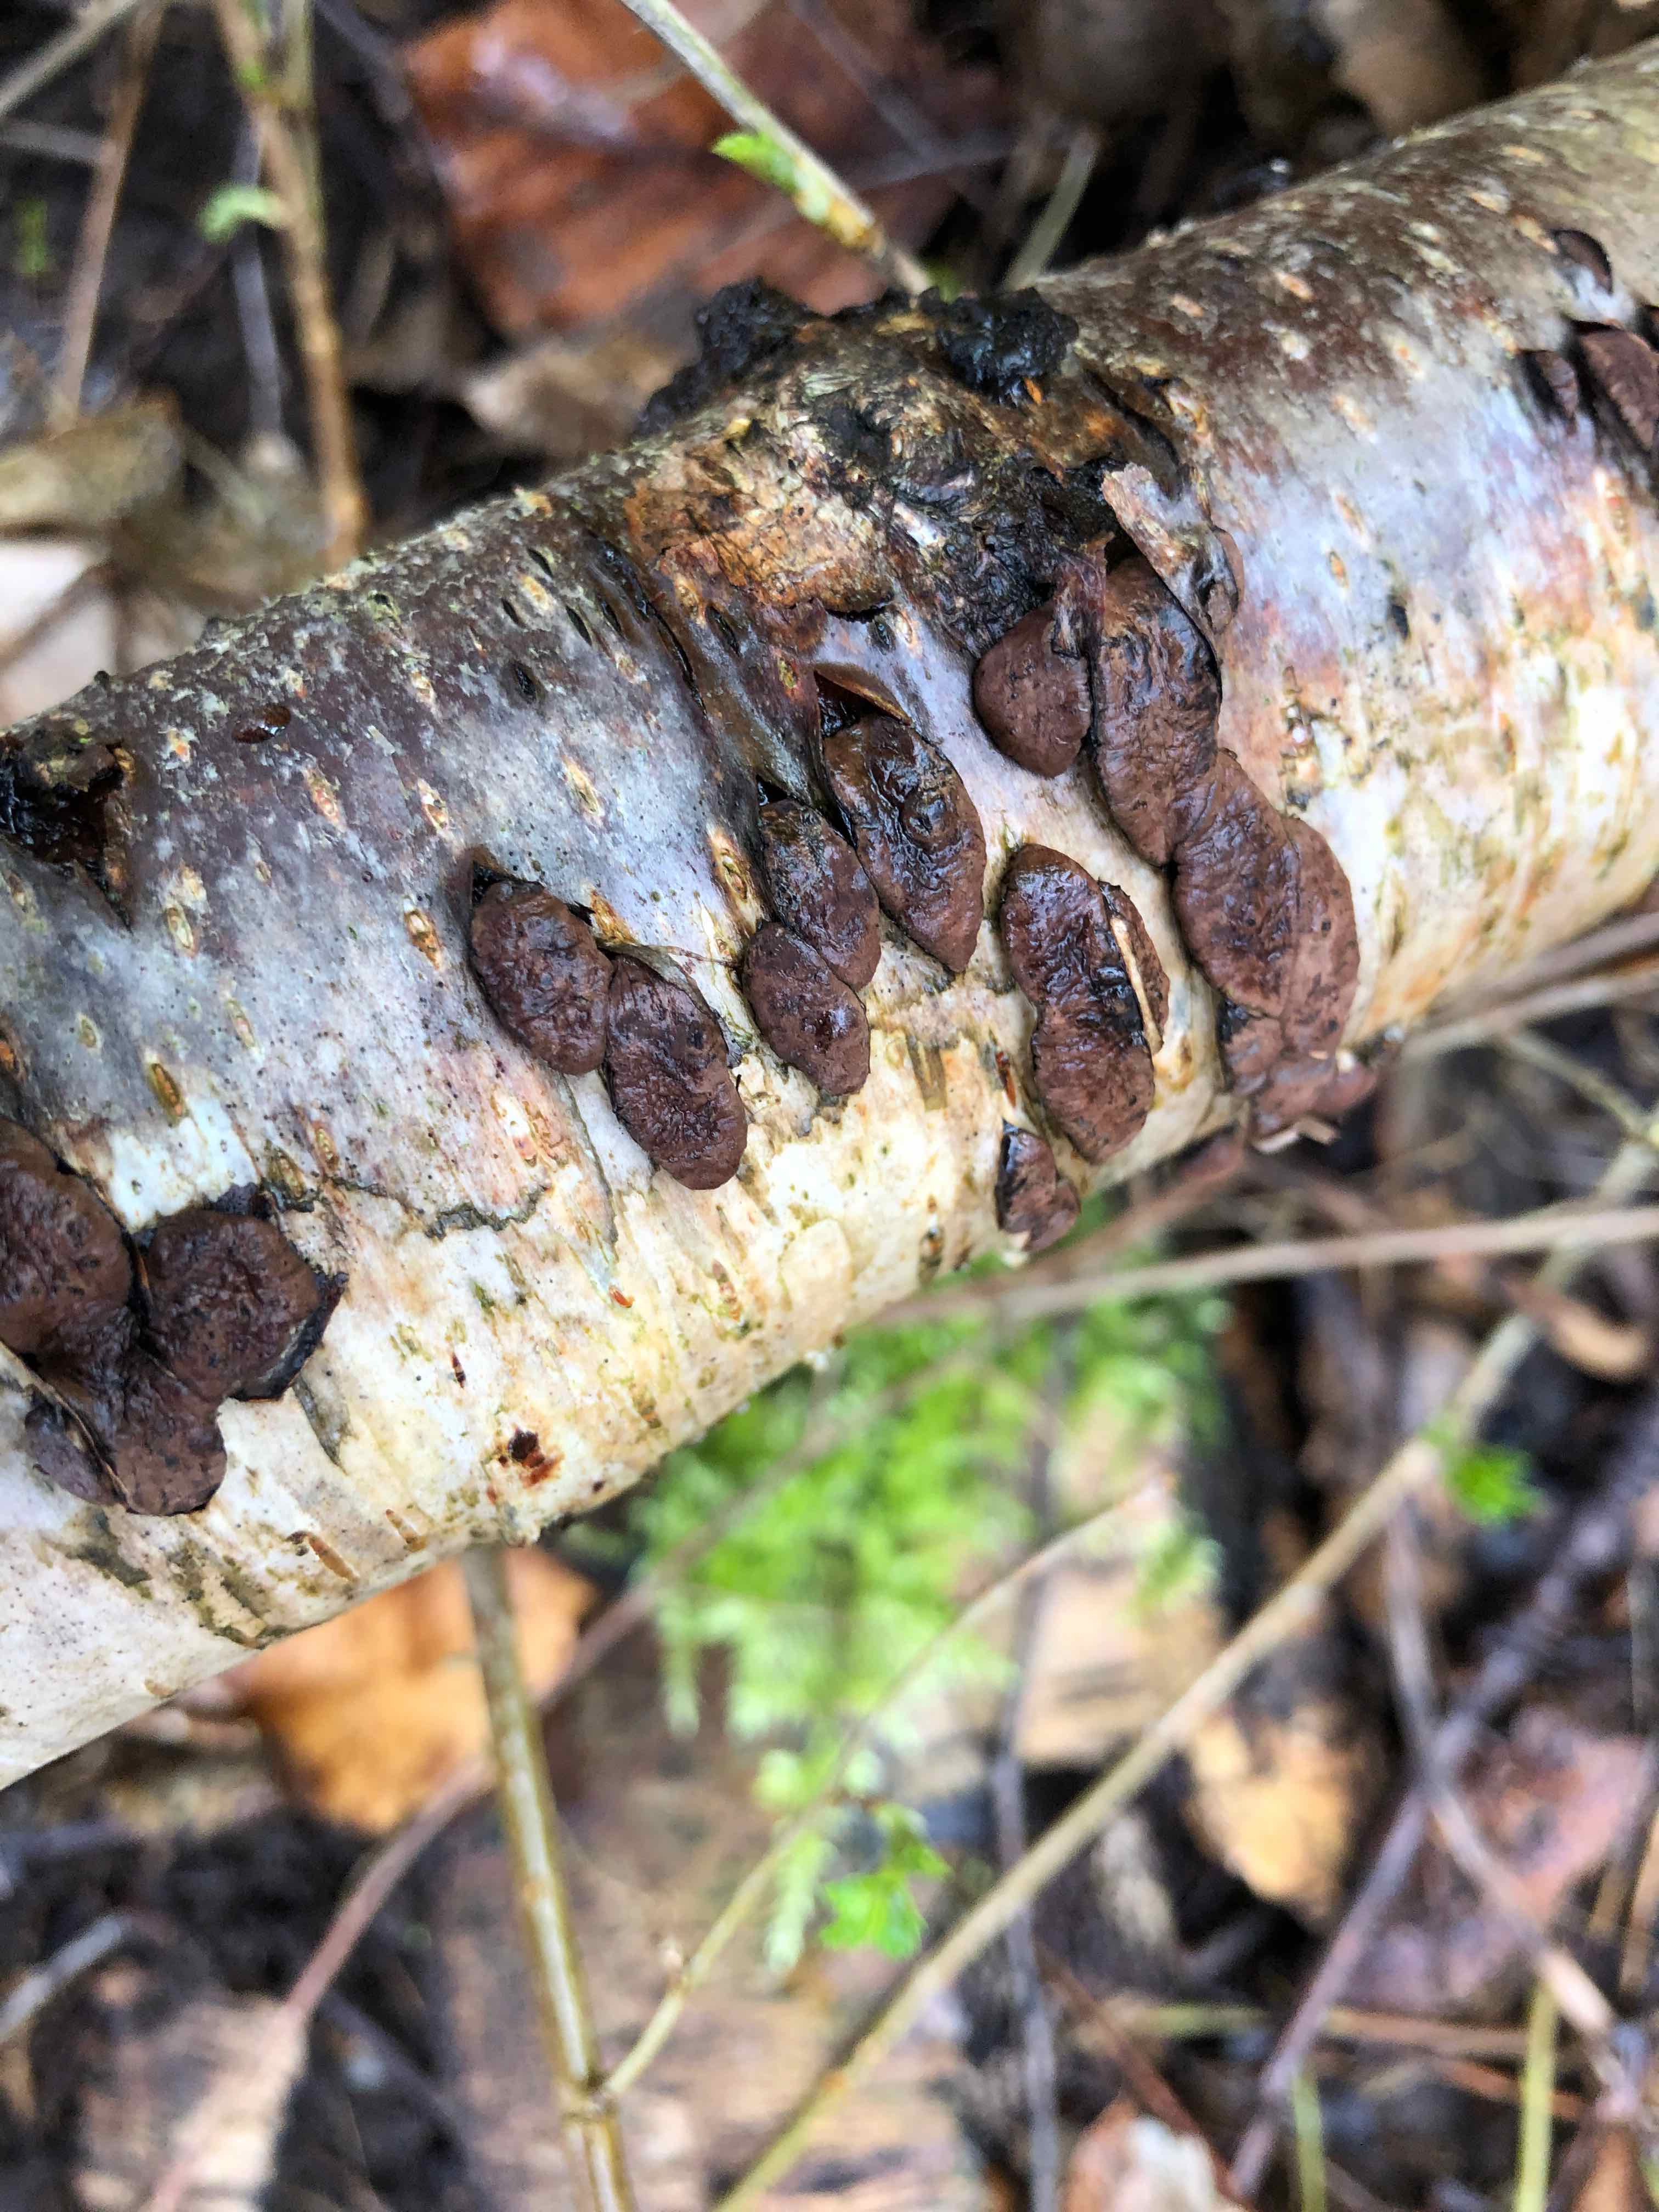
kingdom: Fungi
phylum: Ascomycota
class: Sordariomycetes
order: Xylariales
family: Hypoxylaceae
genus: Jackrogersella
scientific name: Jackrogersella multiformis
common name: foranderlig kulbær
